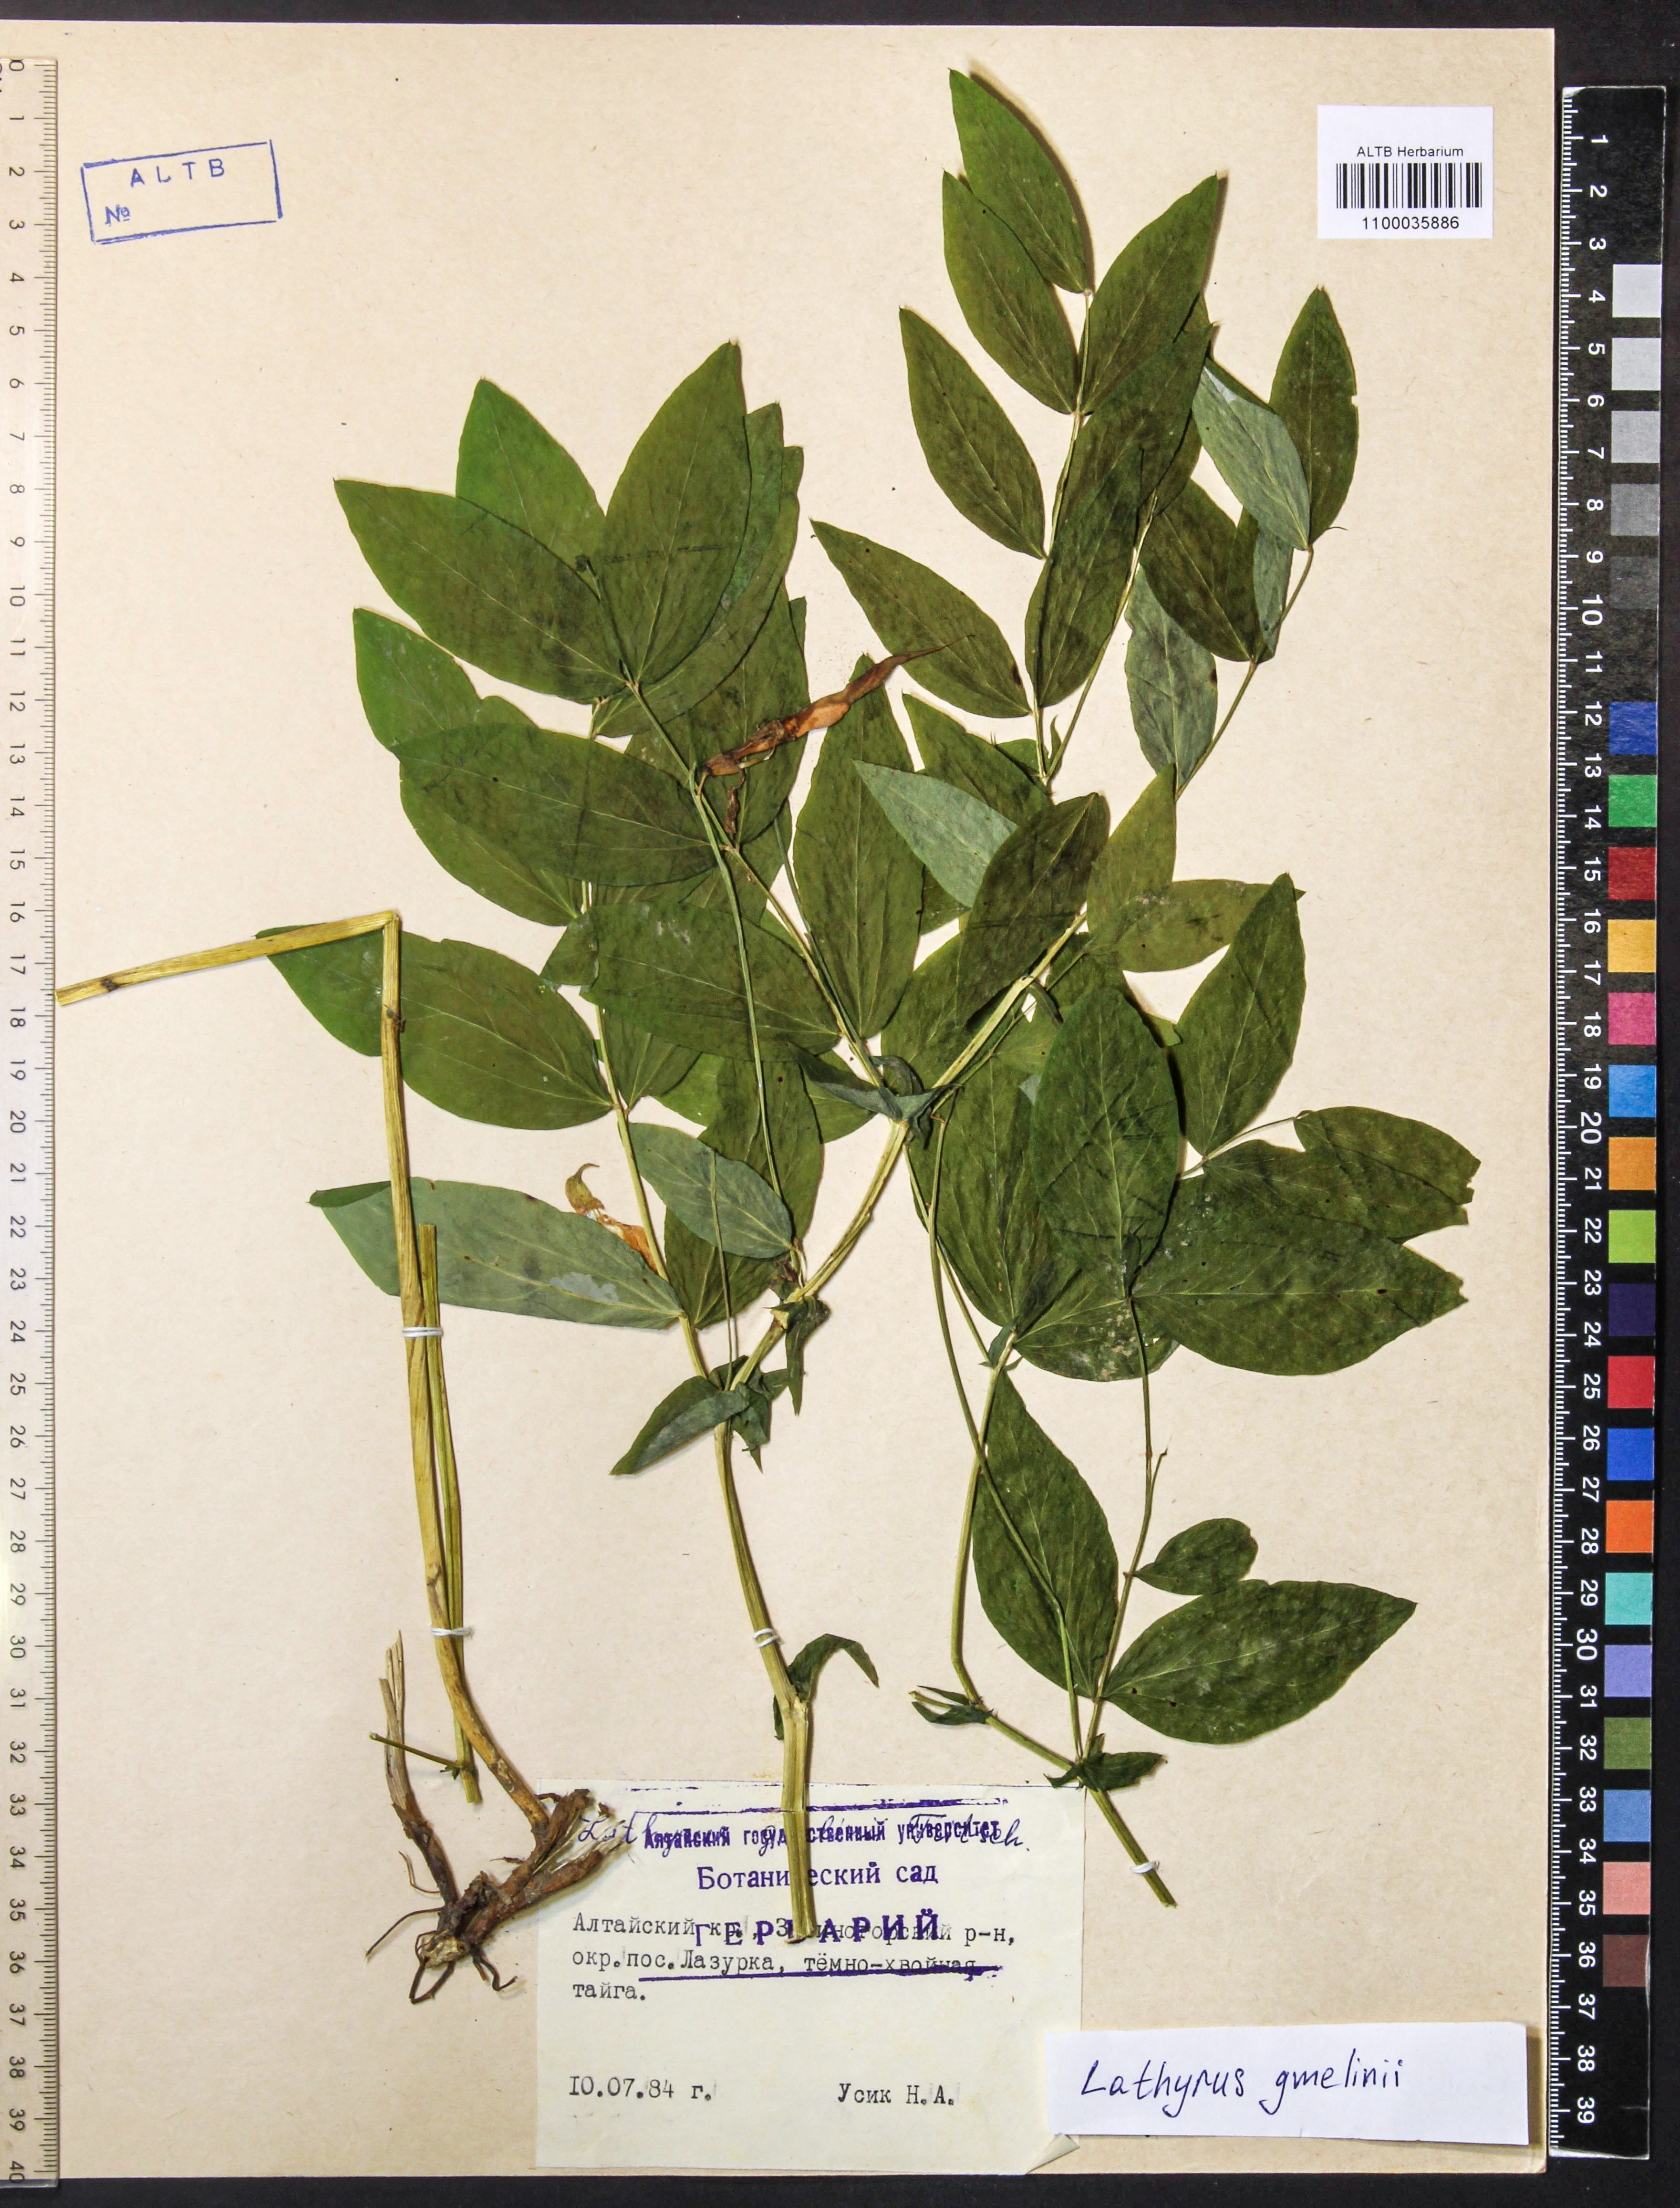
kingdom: Plantae
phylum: Tracheophyta
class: Magnoliopsida
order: Fabales
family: Fabaceae
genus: Lathyrus
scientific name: Lathyrus gmelinii
